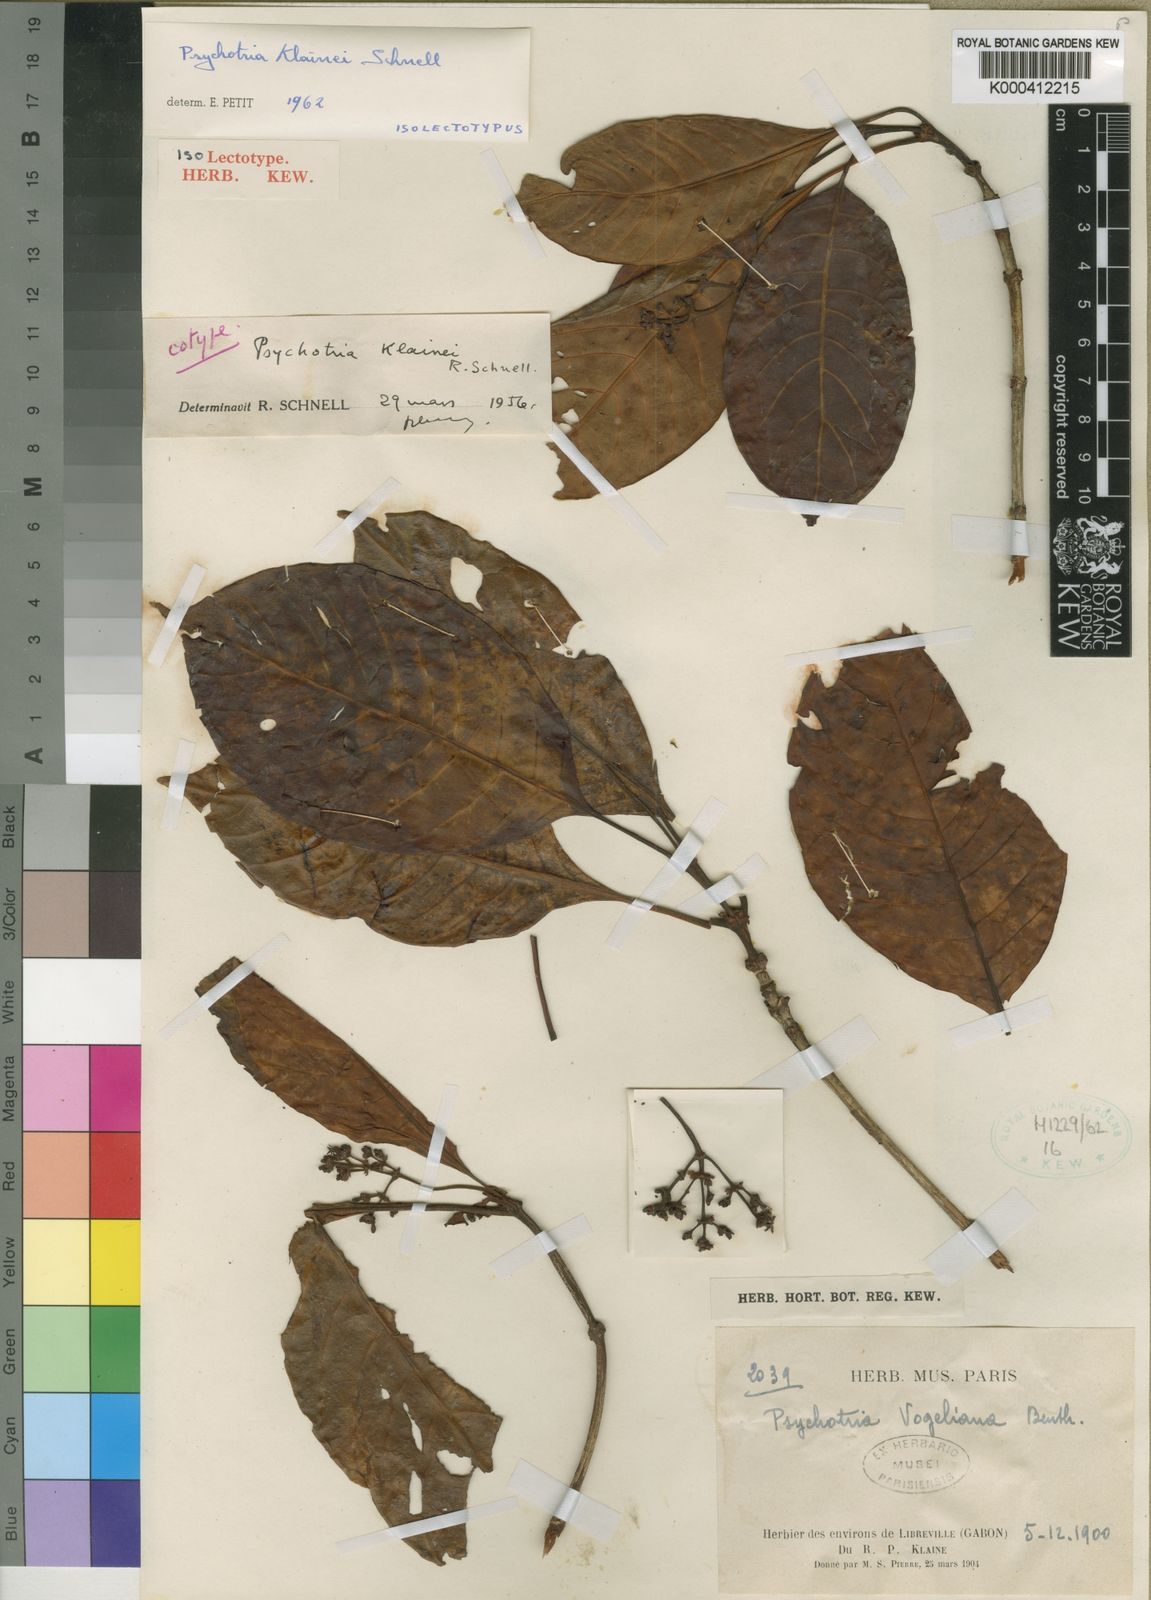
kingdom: Plantae
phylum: Tracheophyta
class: Magnoliopsida
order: Gentianales
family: Rubiaceae
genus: Psychotria
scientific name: Psychotria klainei
